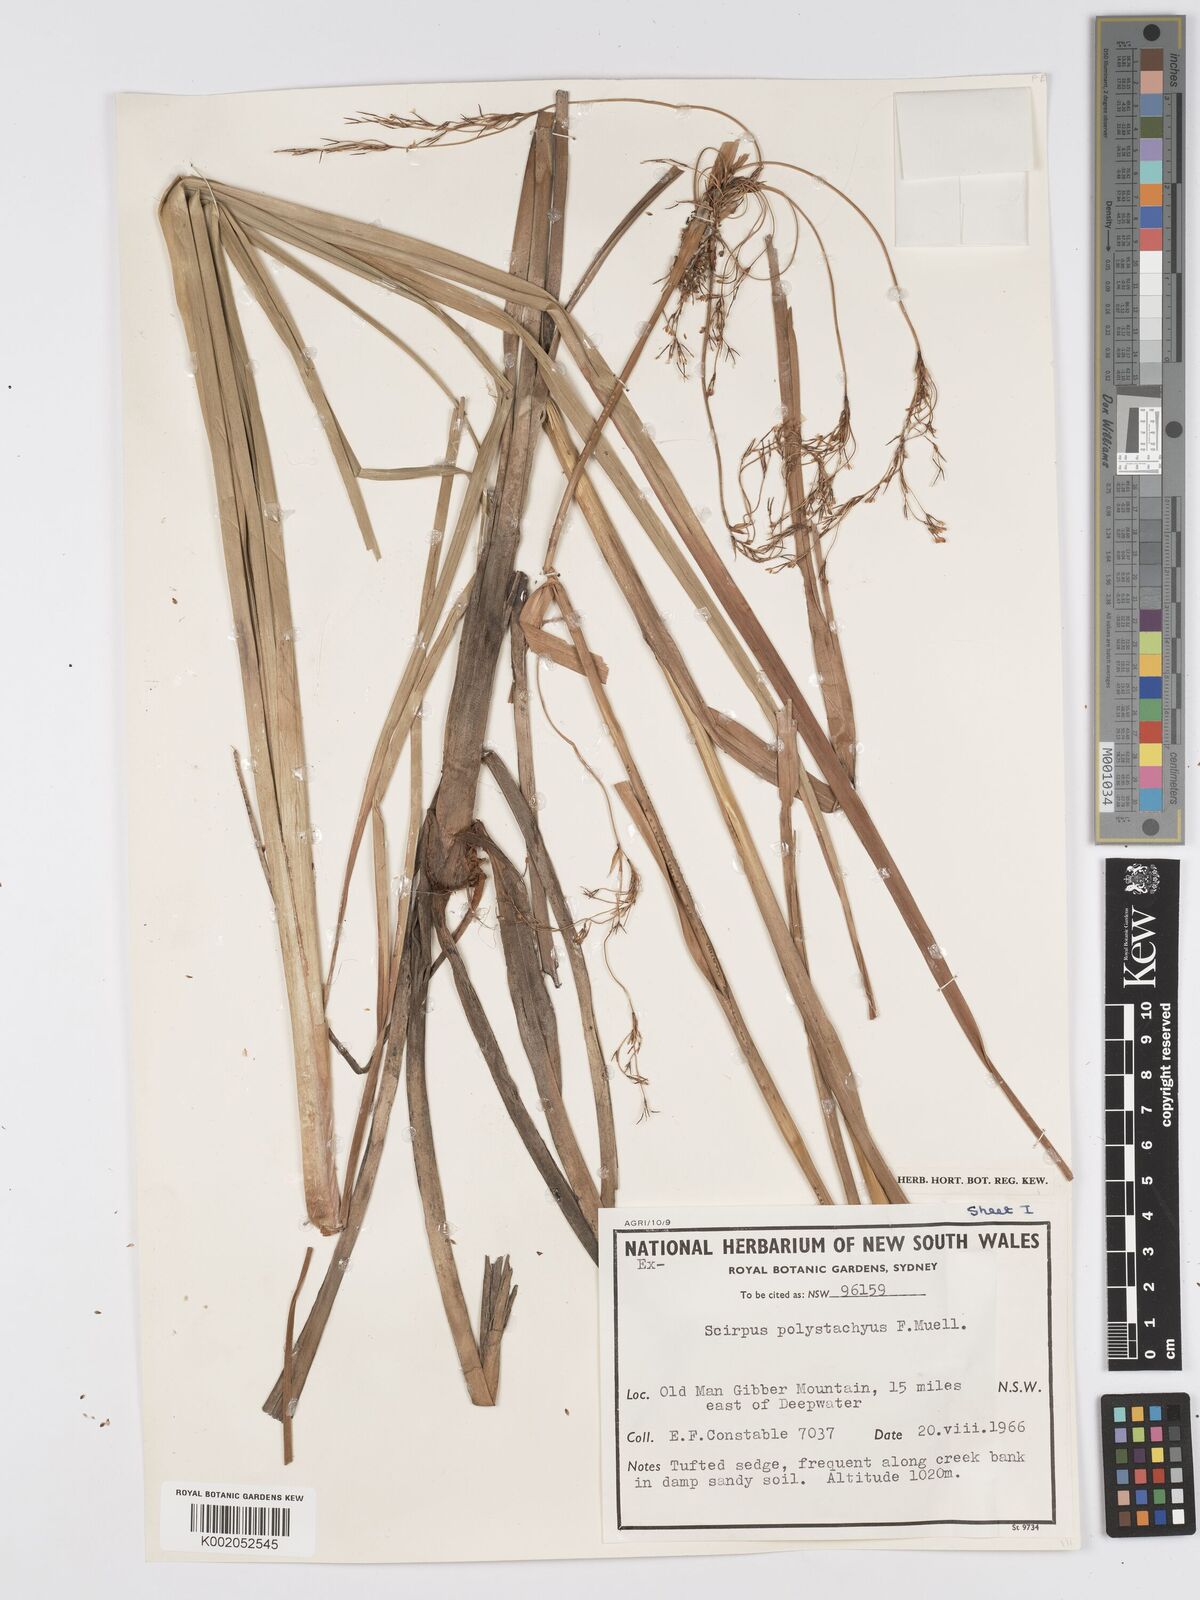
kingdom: Plantae
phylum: Tracheophyta
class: Liliopsida
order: Poales
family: Cyperaceae
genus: Scirpus
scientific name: Scirpus polystachyus
